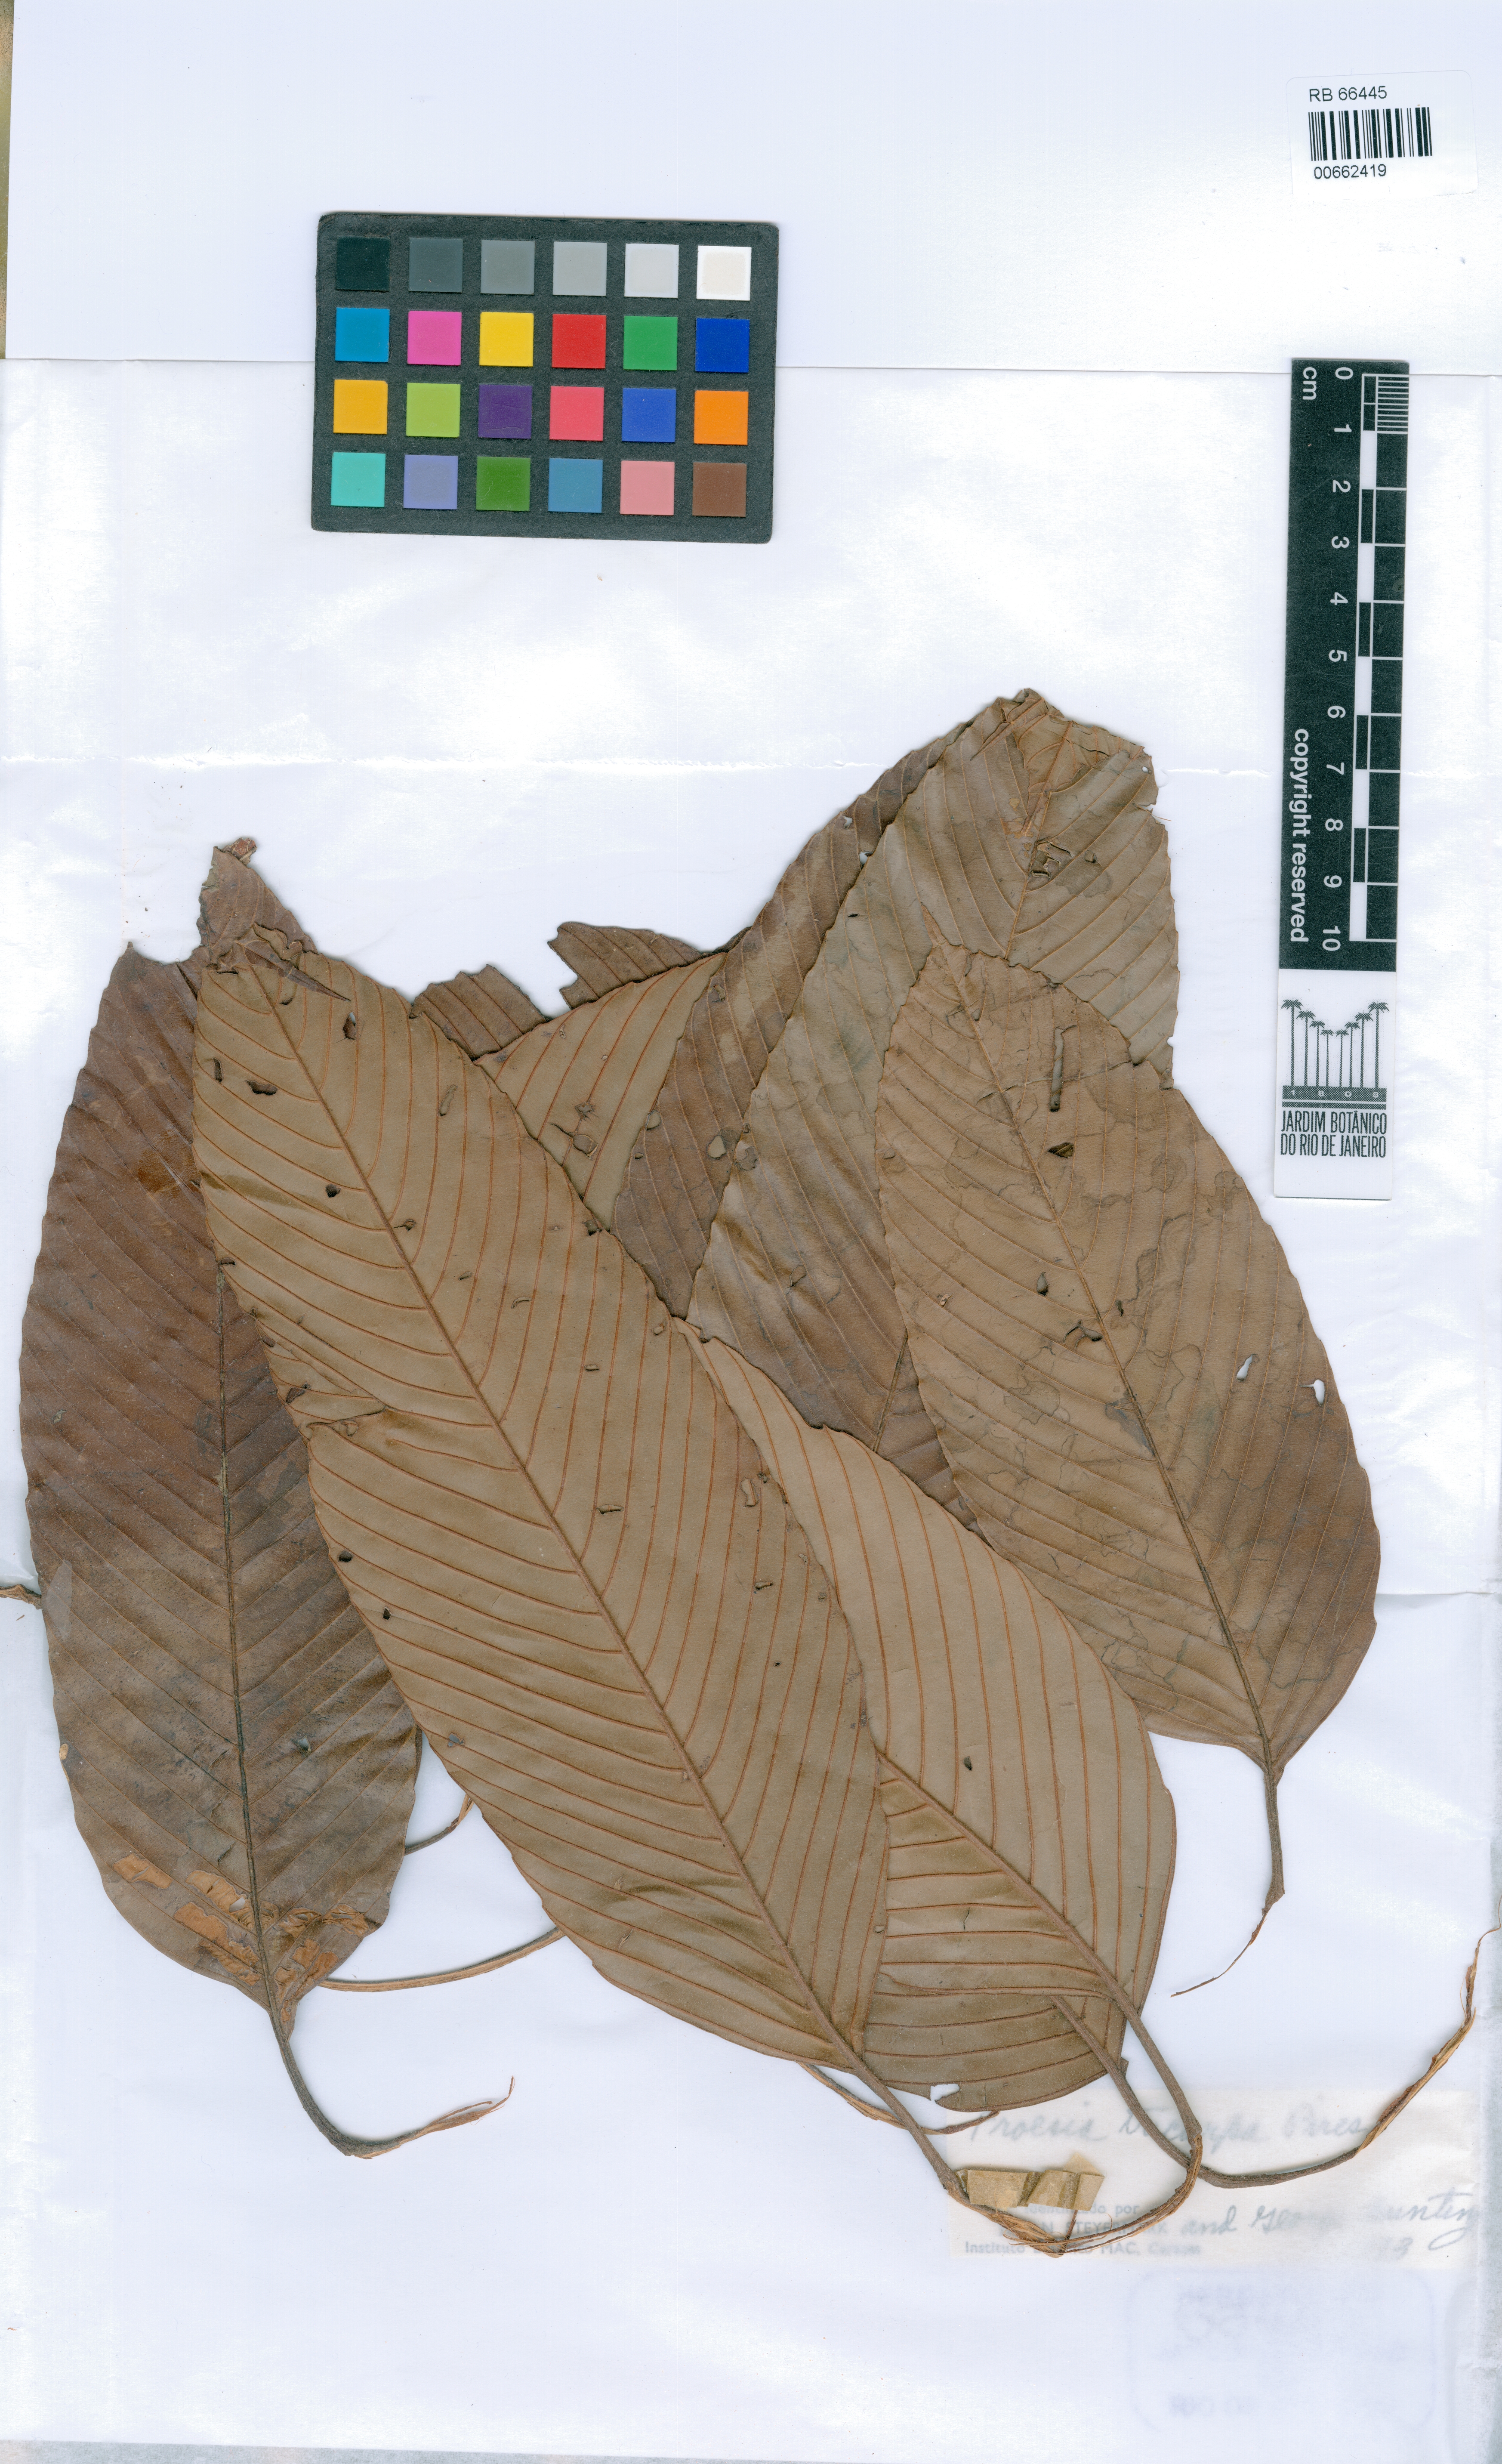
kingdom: Plantae
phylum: Tracheophyta
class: Magnoliopsida
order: Malpighiales
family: Quiinaceae
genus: Froesia
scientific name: Froesia tricarpa
